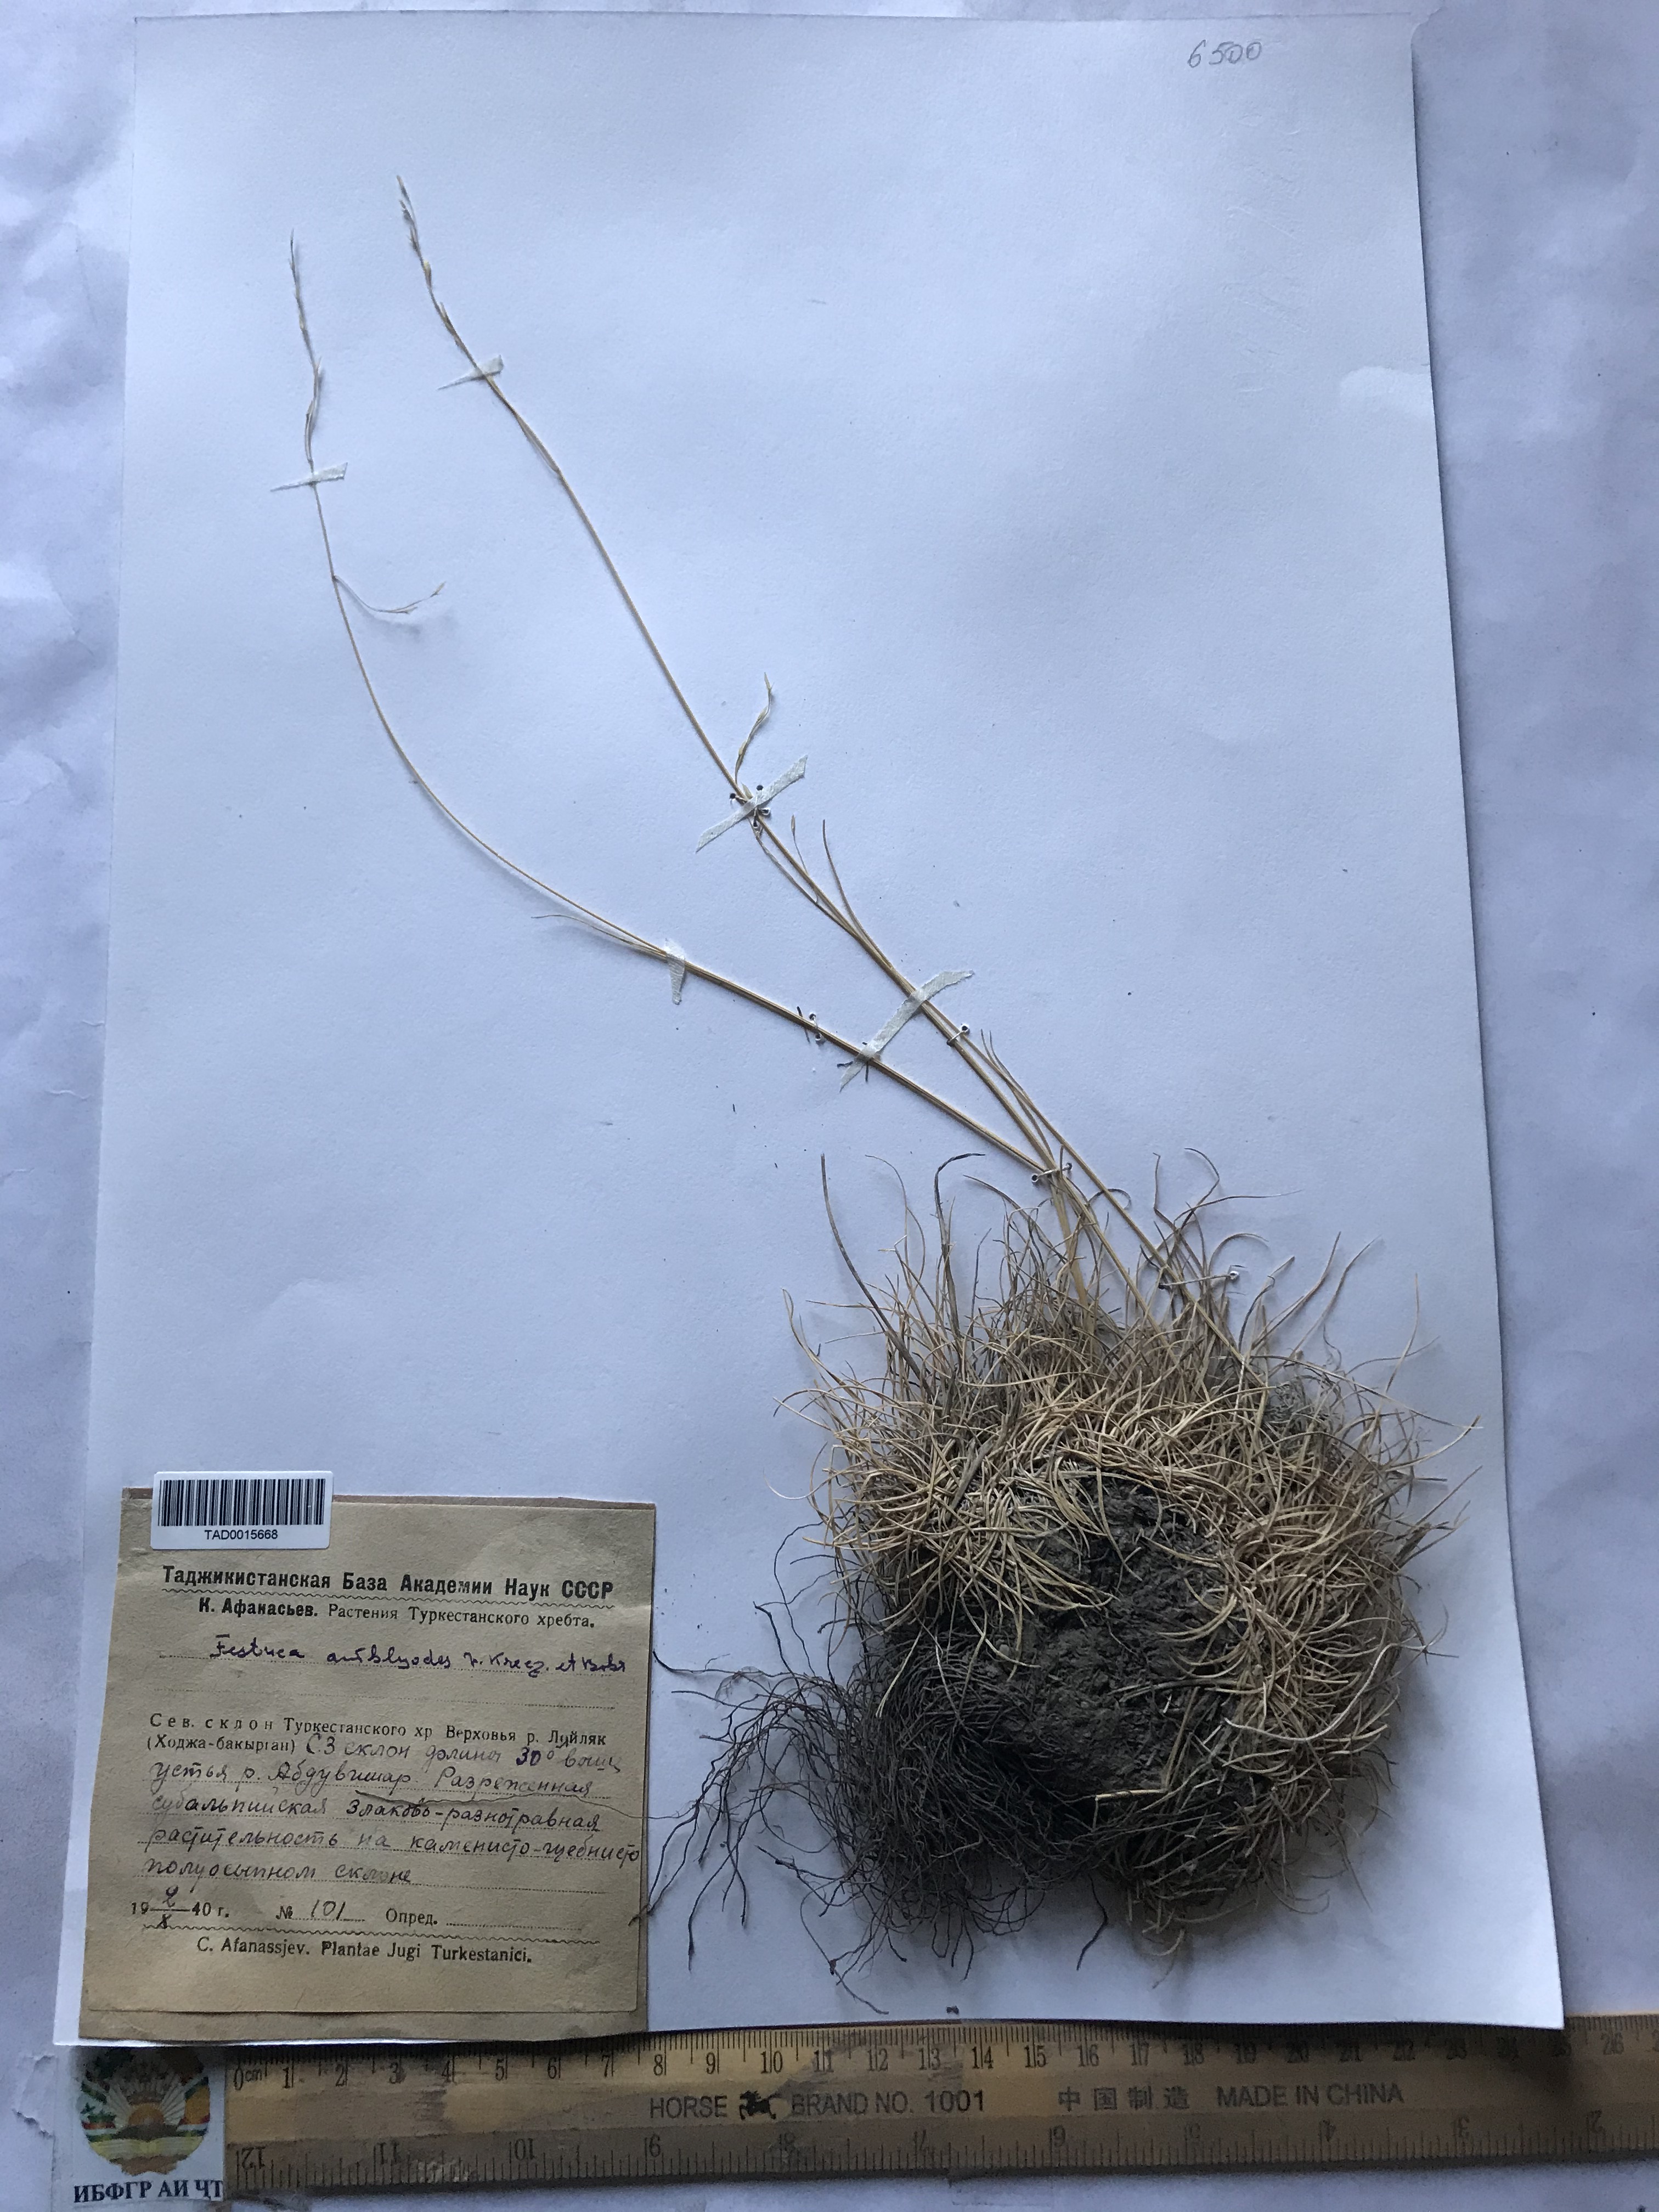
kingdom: Plantae
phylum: Tracheophyta
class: Liliopsida
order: Poales
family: Poaceae
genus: Festuca
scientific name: Festuca amblyodes
